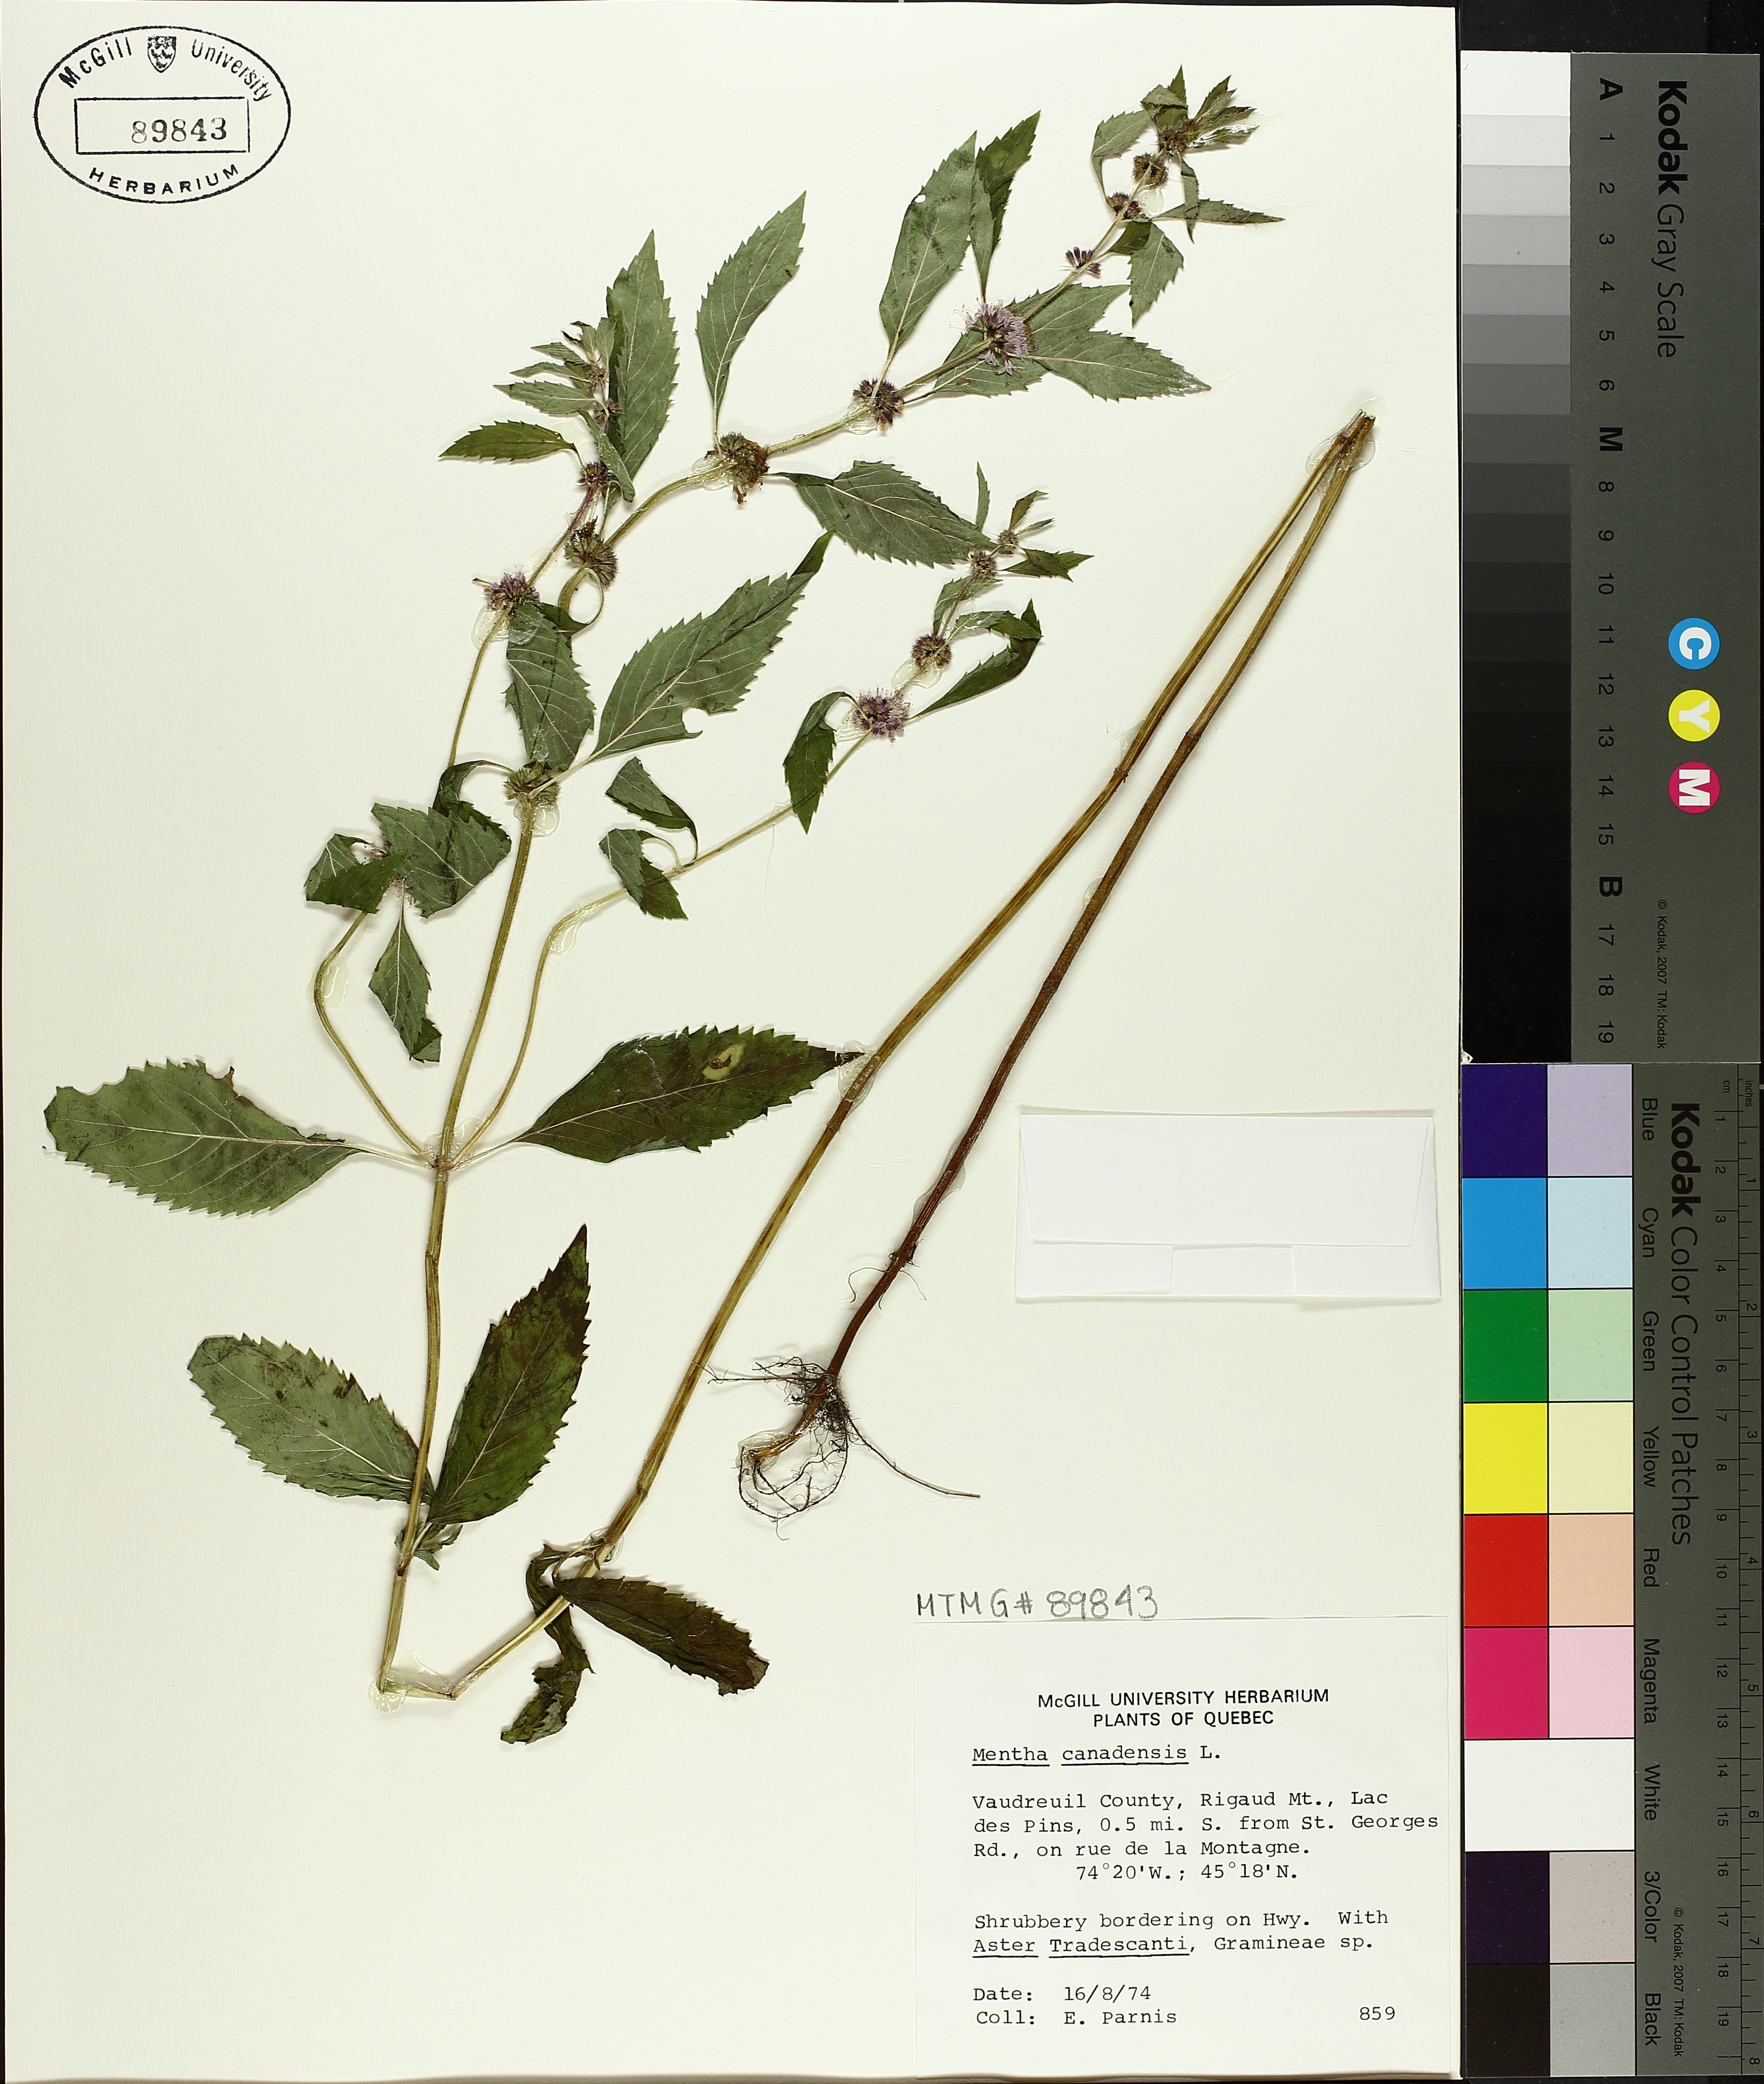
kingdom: Plantae
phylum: Tracheophyta
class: Magnoliopsida
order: Lamiales
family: Lamiaceae
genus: Mentha
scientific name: Mentha canadensis
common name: American corn mint
